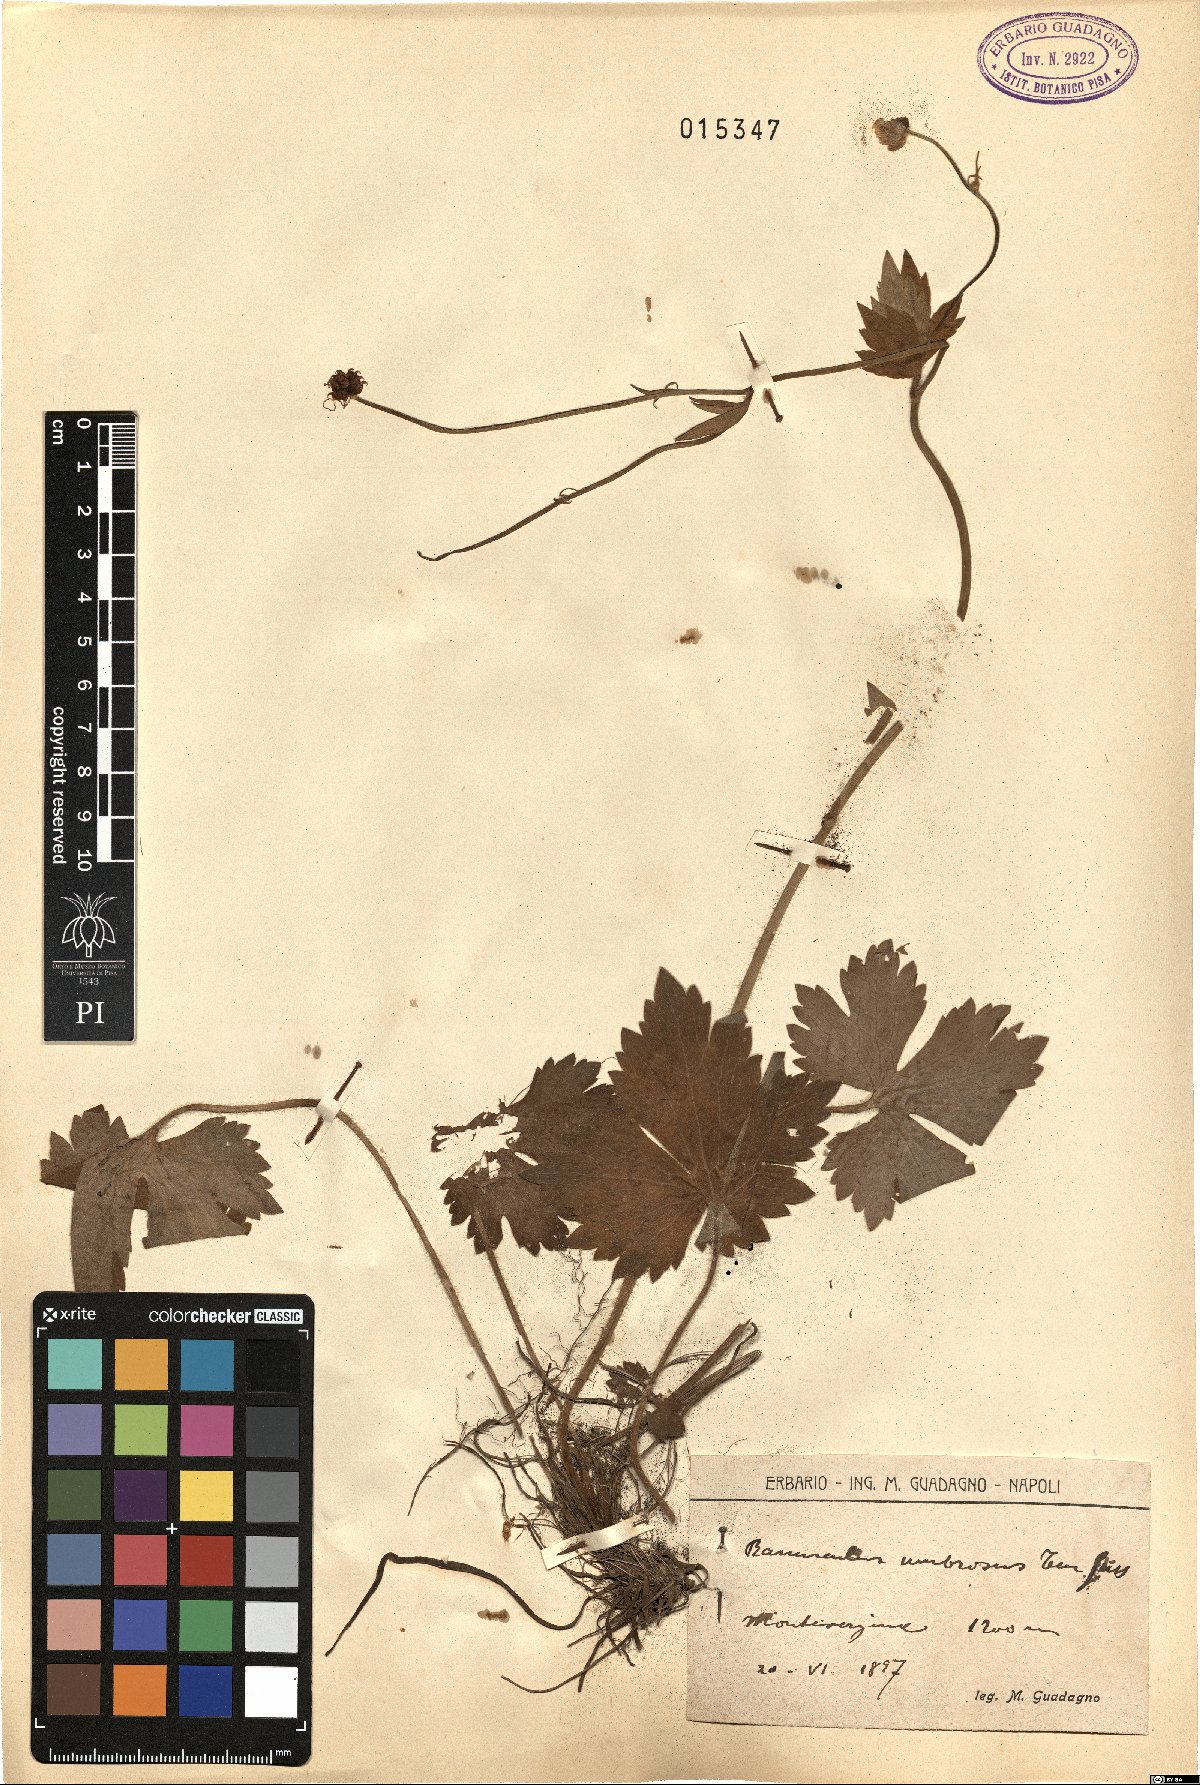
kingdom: Plantae
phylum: Tracheophyta
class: Magnoliopsida
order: Ranunculales
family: Ranunculaceae
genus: Ranunculus
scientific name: Ranunculus lanuginosus
